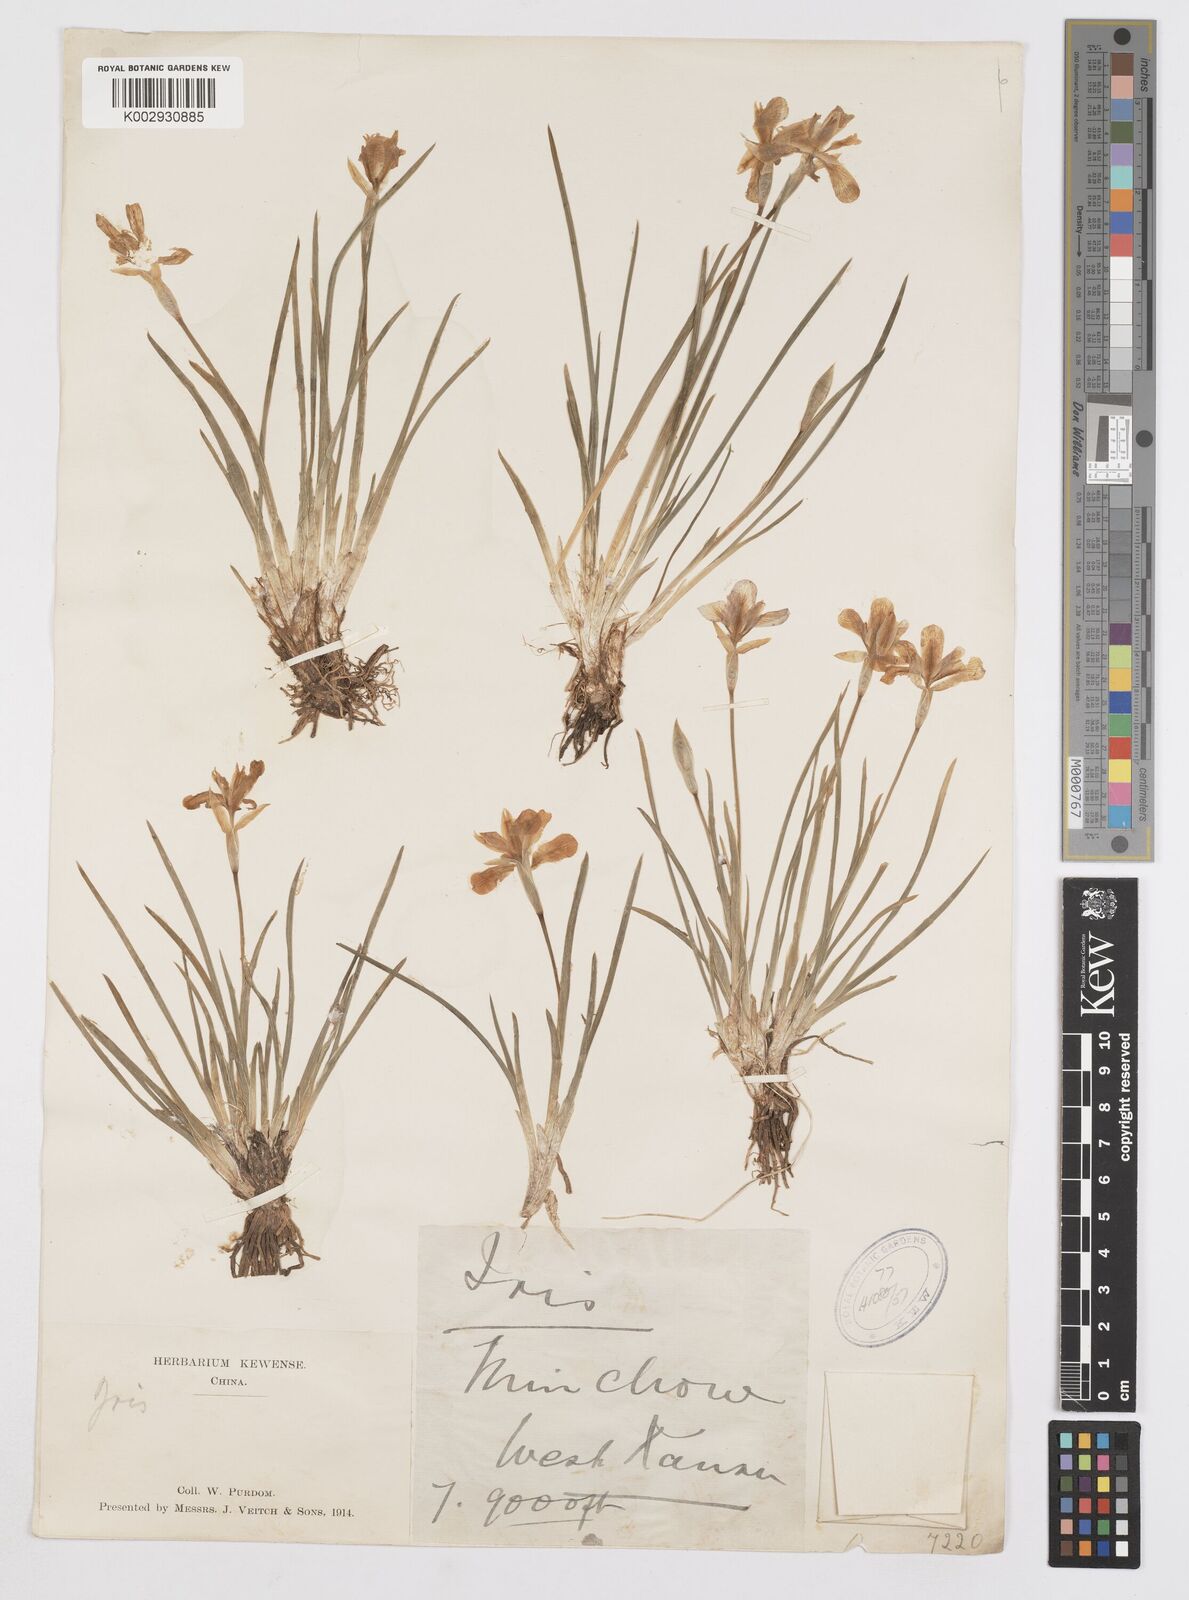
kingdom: Plantae
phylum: Tracheophyta
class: Liliopsida
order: Asparagales
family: Iridaceae
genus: Iris
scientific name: Iris goniocarpa
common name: Angular-fruit iris
